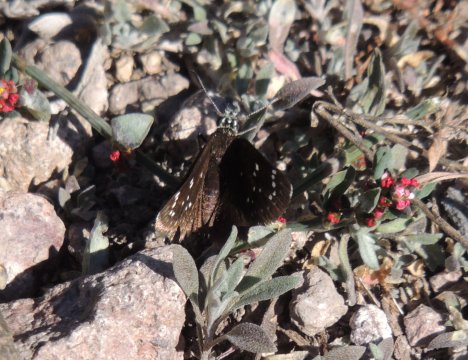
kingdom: Animalia
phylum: Arthropoda
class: Insecta
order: Lepidoptera
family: Hesperiidae
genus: Pholisora
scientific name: Pholisora catullus
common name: Common Sootywing
